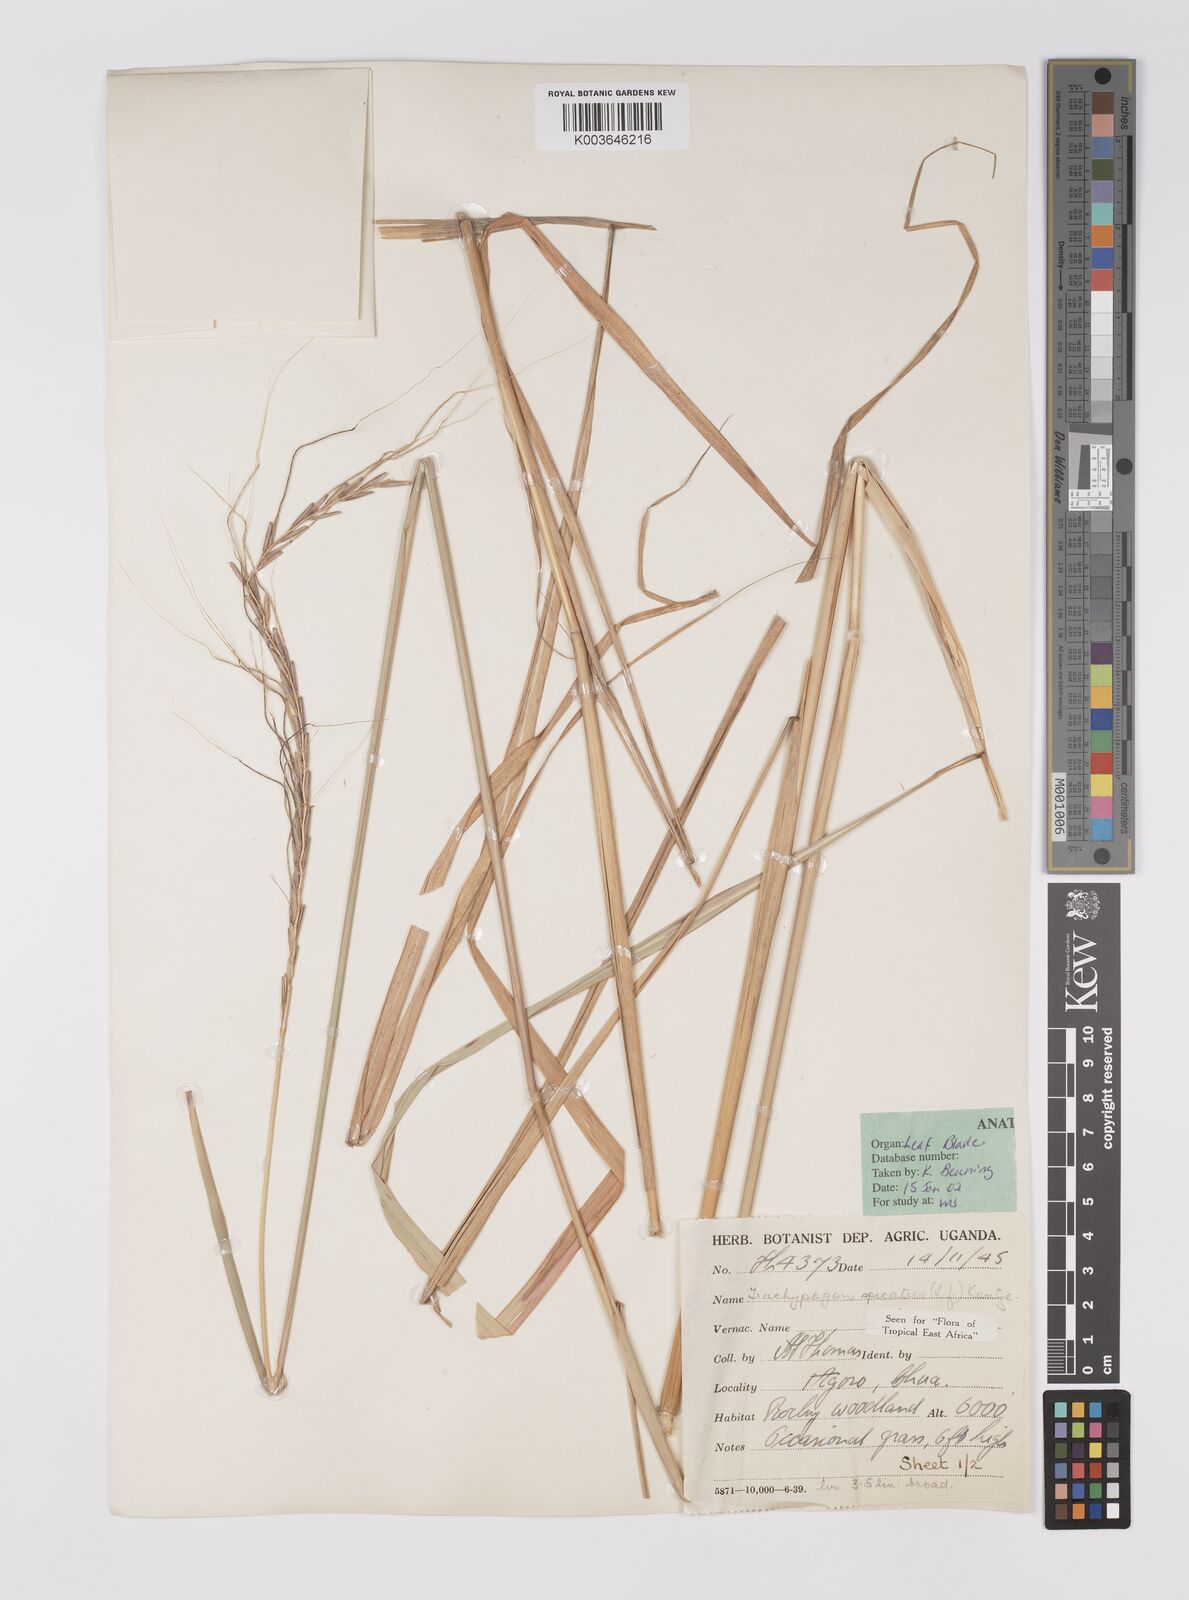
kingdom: Plantae
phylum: Tracheophyta
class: Liliopsida
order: Poales
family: Poaceae
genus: Trachypogon
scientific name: Trachypogon spicatus
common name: Crinkle-awn
